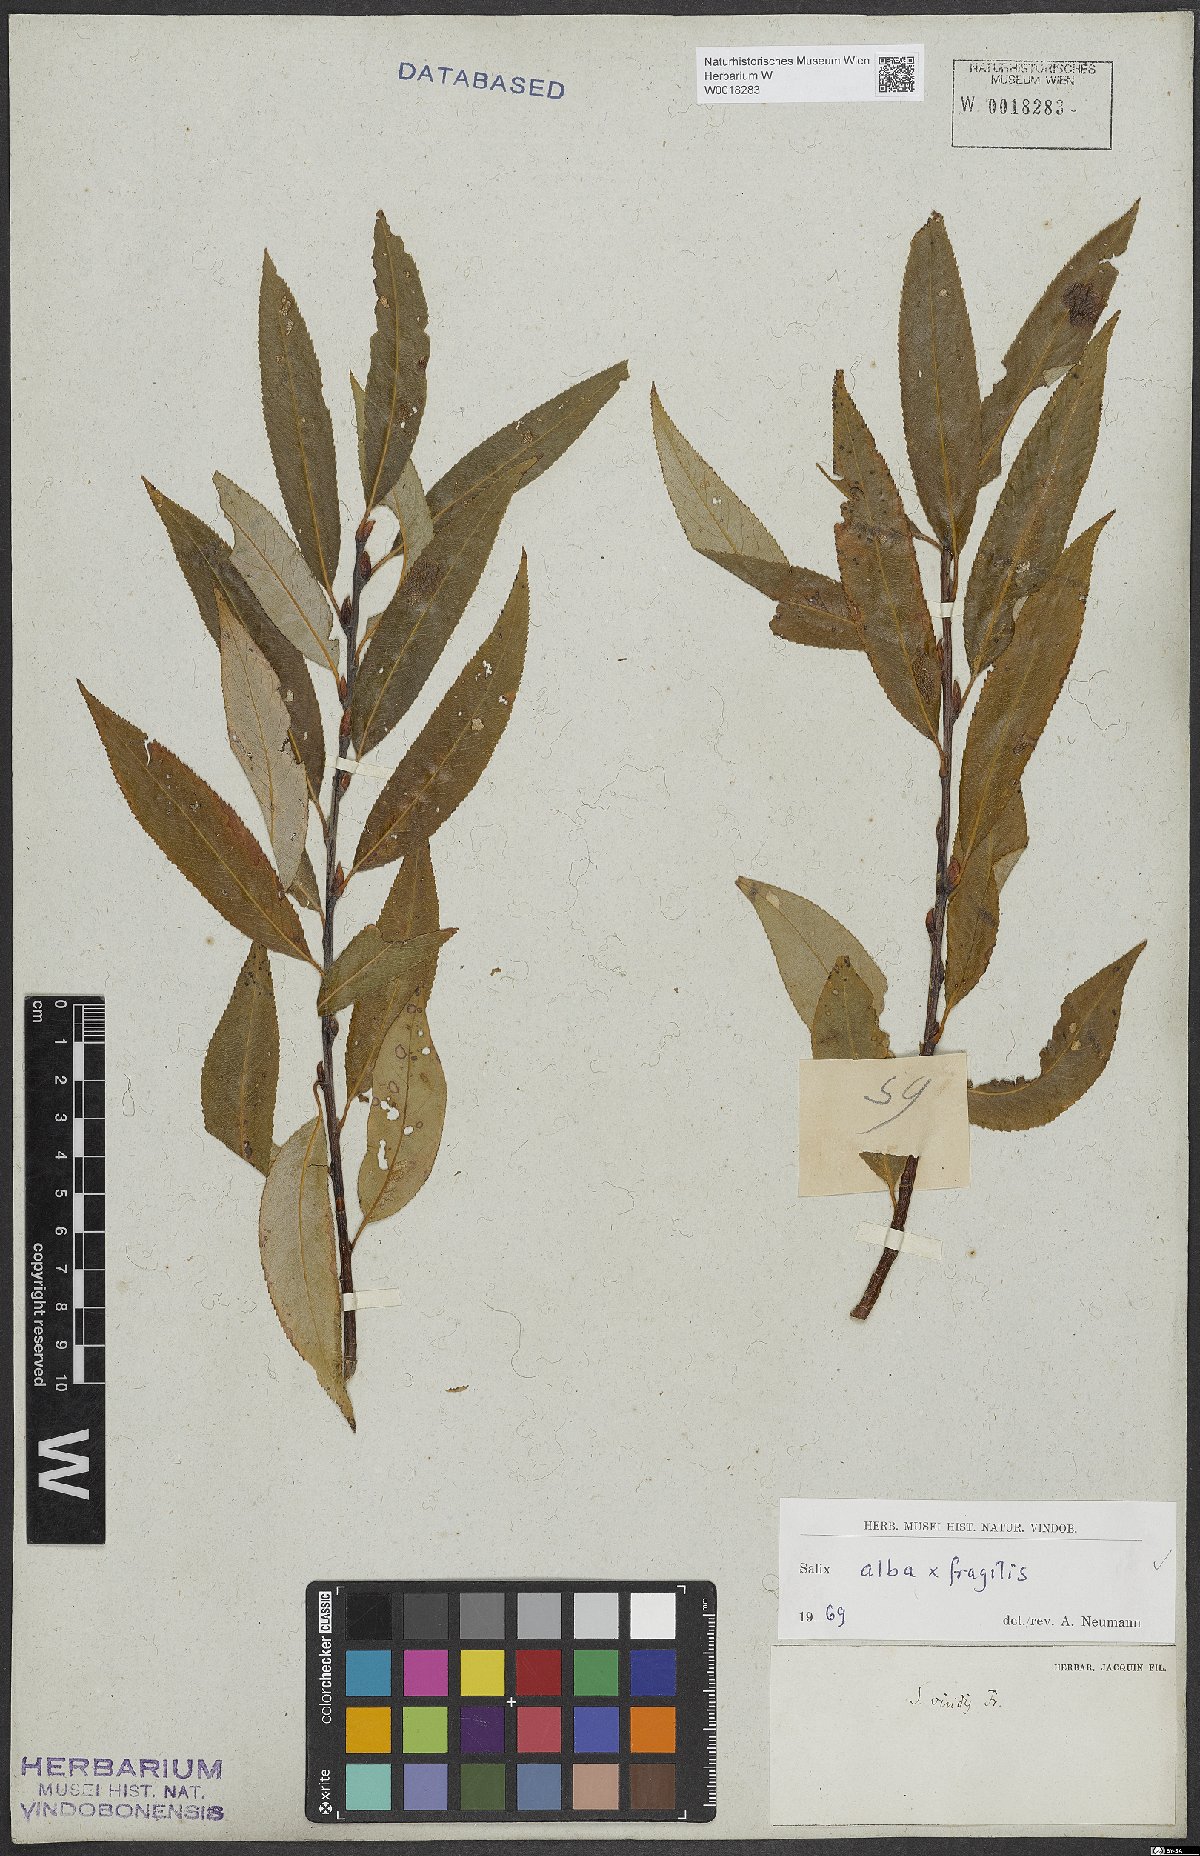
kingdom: Plantae
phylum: Tracheophyta
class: Magnoliopsida
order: Malpighiales
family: Salicaceae
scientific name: Salicaceae
